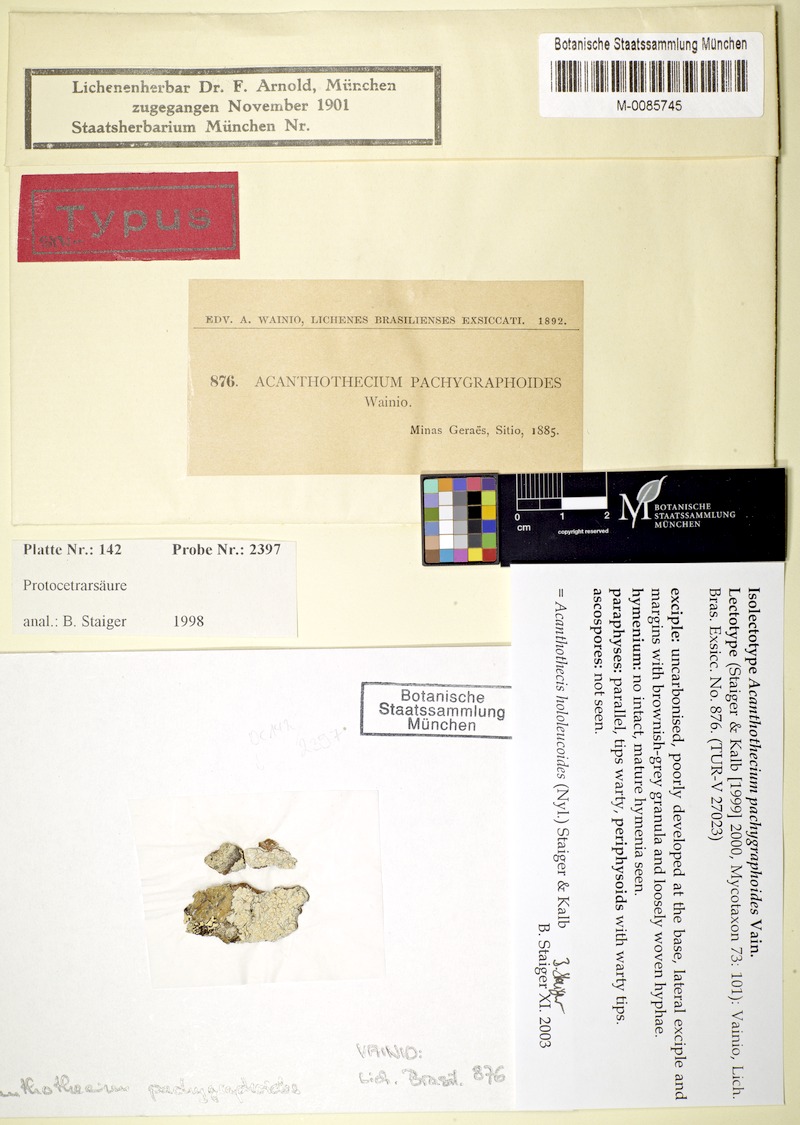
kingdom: Fungi
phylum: Ascomycota
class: Lecanoromycetes
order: Ostropales
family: Graphidaceae
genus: Acanthothecis
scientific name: Acanthothecis hololeucoides
